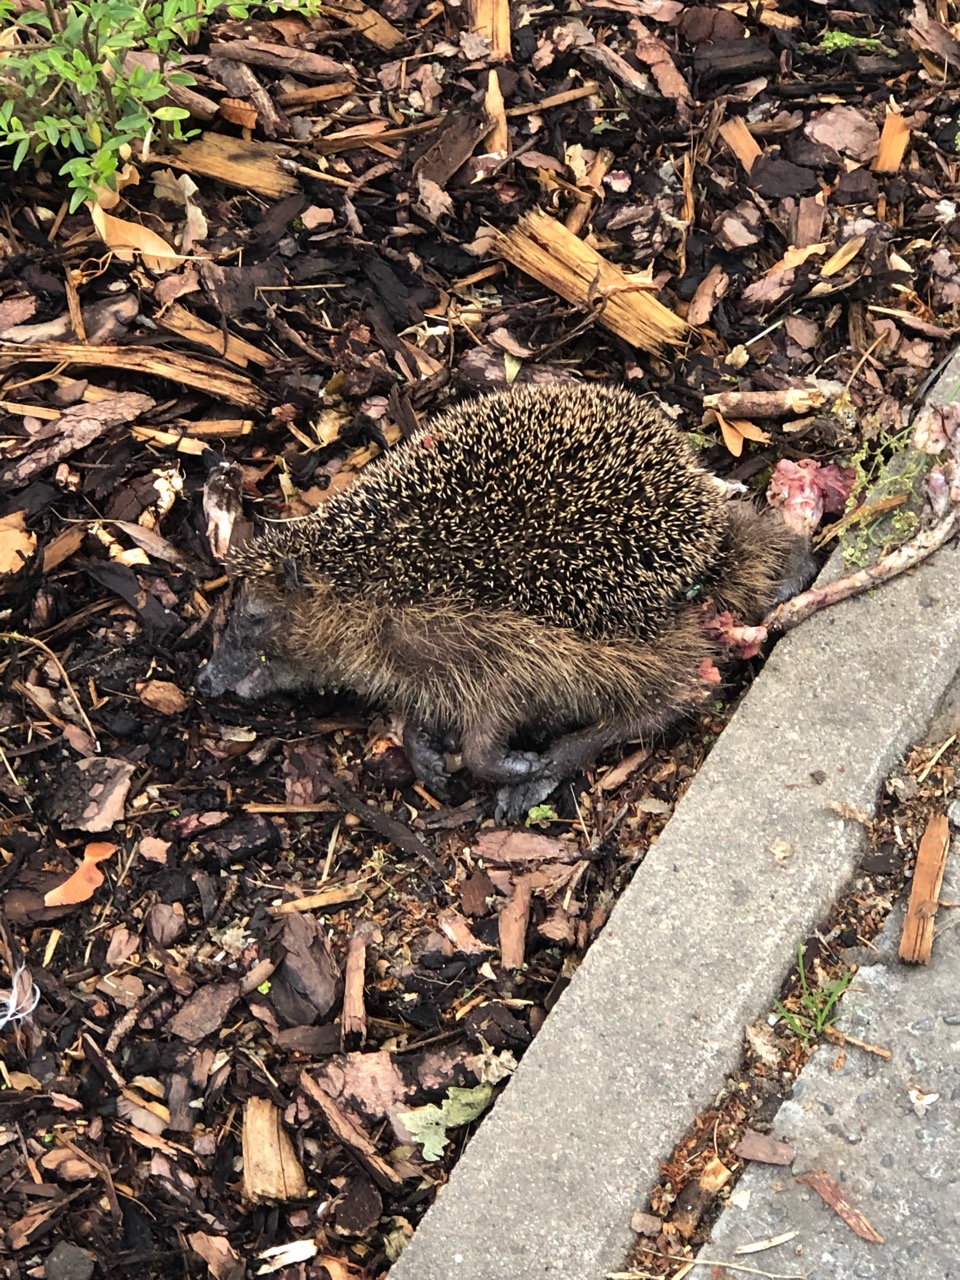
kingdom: Animalia
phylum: Chordata
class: Mammalia
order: Erinaceomorpha
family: Erinaceidae
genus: Erinaceus
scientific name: Erinaceus
